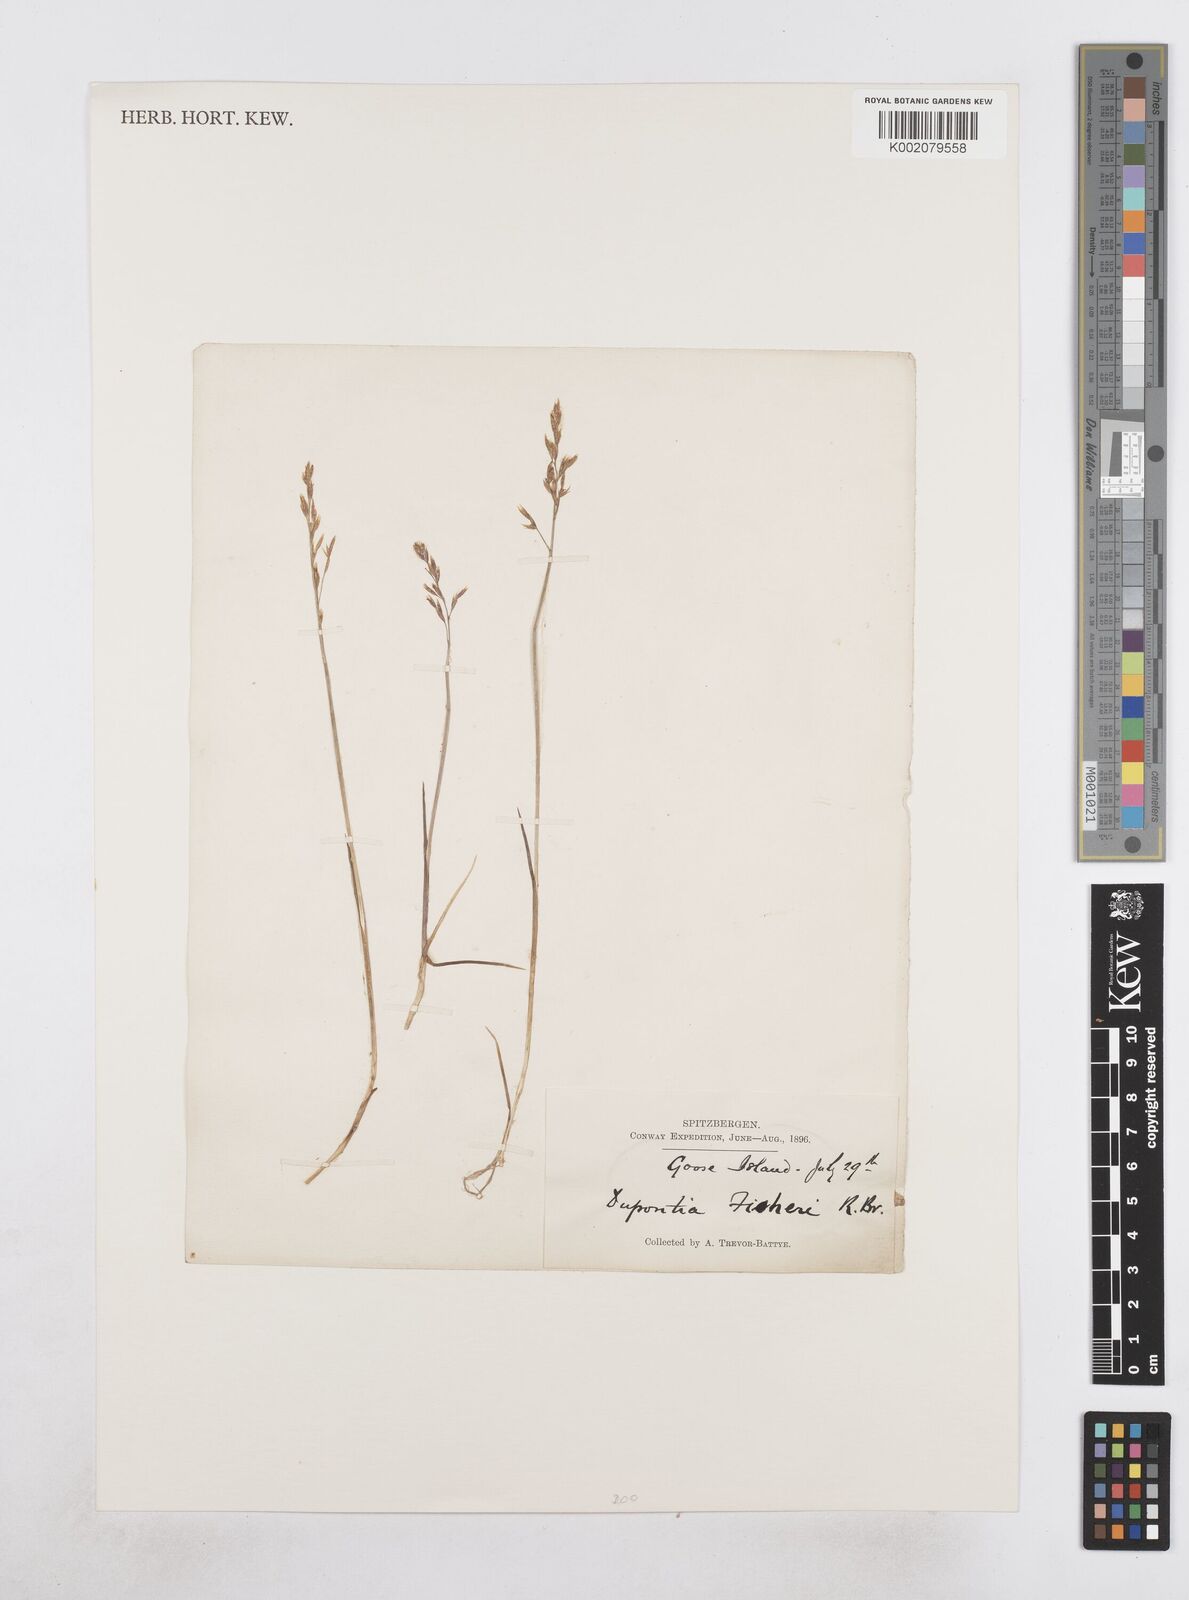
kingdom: Plantae
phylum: Tracheophyta
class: Liliopsida
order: Poales
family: Poaceae
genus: Dupontia
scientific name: Dupontia fisheri
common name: Tundra grass
